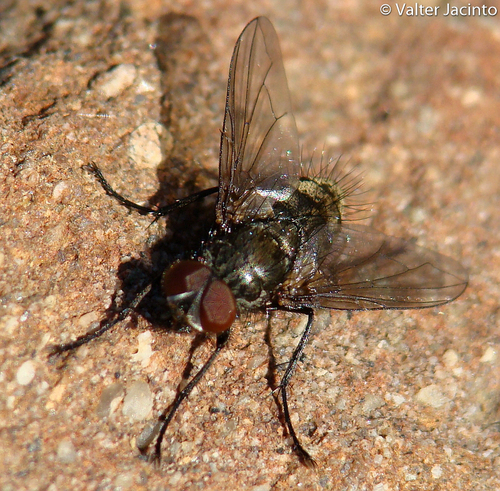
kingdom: Animalia
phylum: Arthropoda
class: Insecta
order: Diptera
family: Tachinidae
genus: Macquartia
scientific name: Macquartia tessellum
